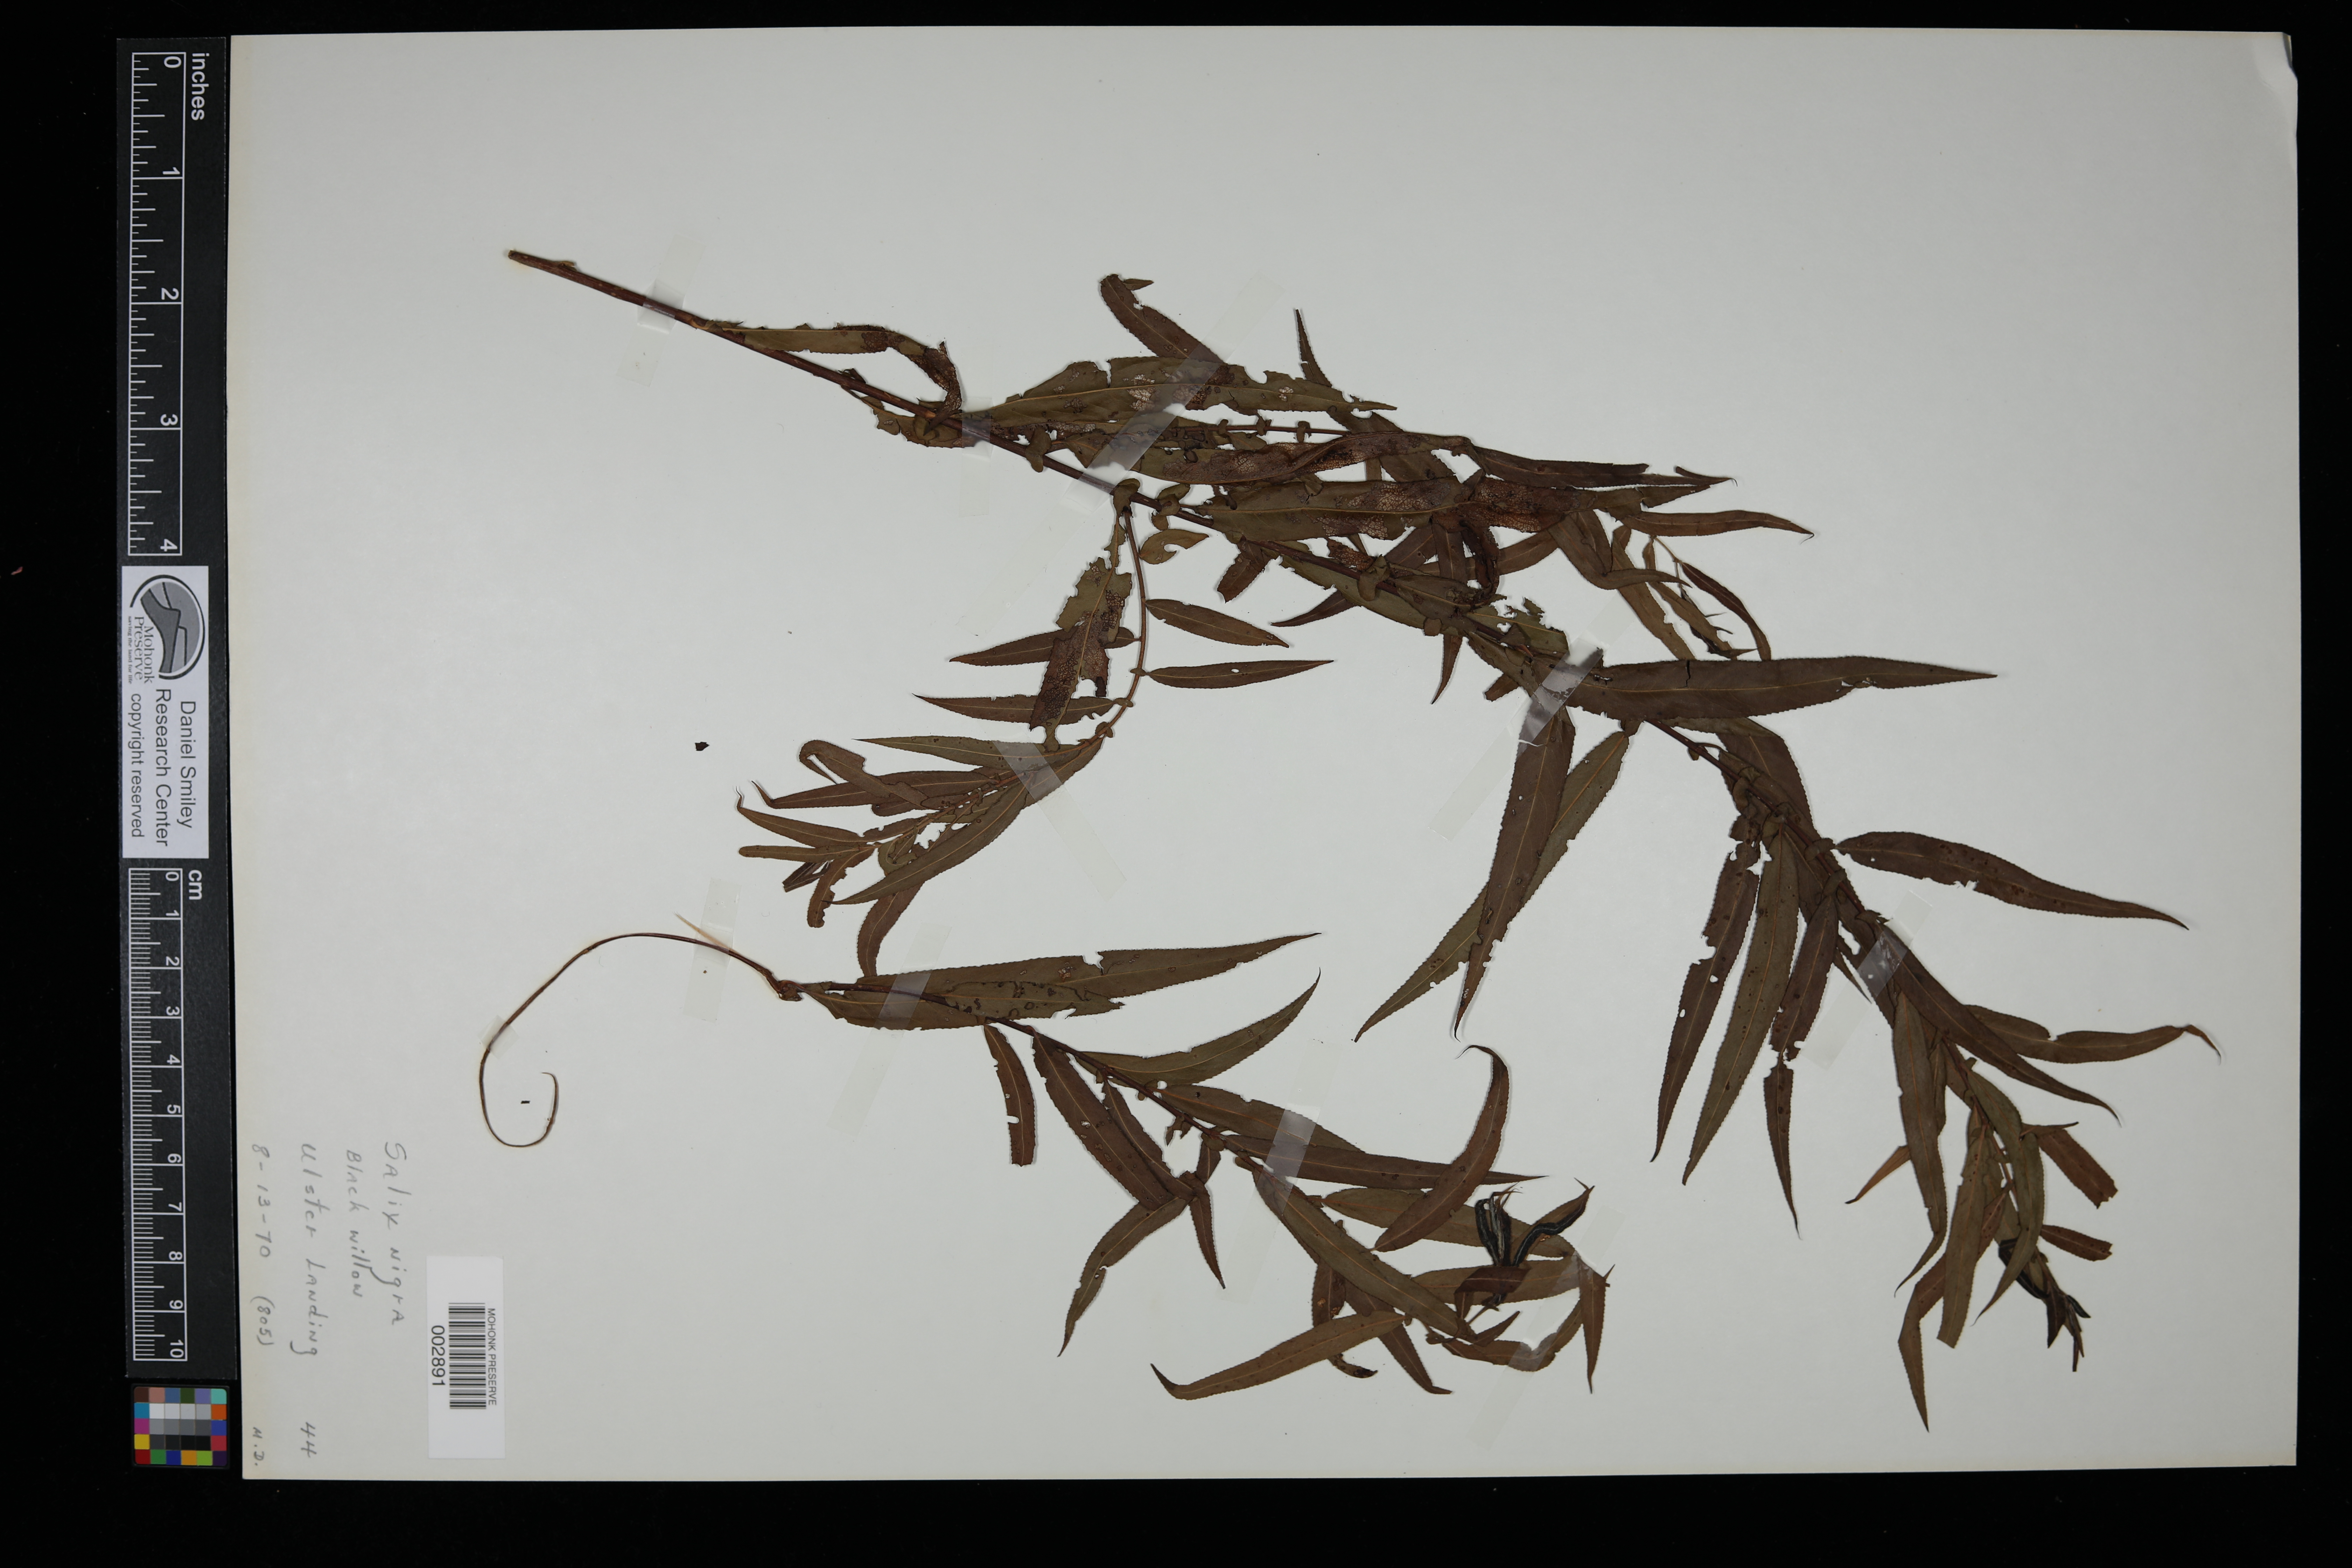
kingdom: Plantae
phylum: Tracheophyta
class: Magnoliopsida
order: Malpighiales
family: Salicaceae
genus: Salix
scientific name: Salix nigra
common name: Black willow
